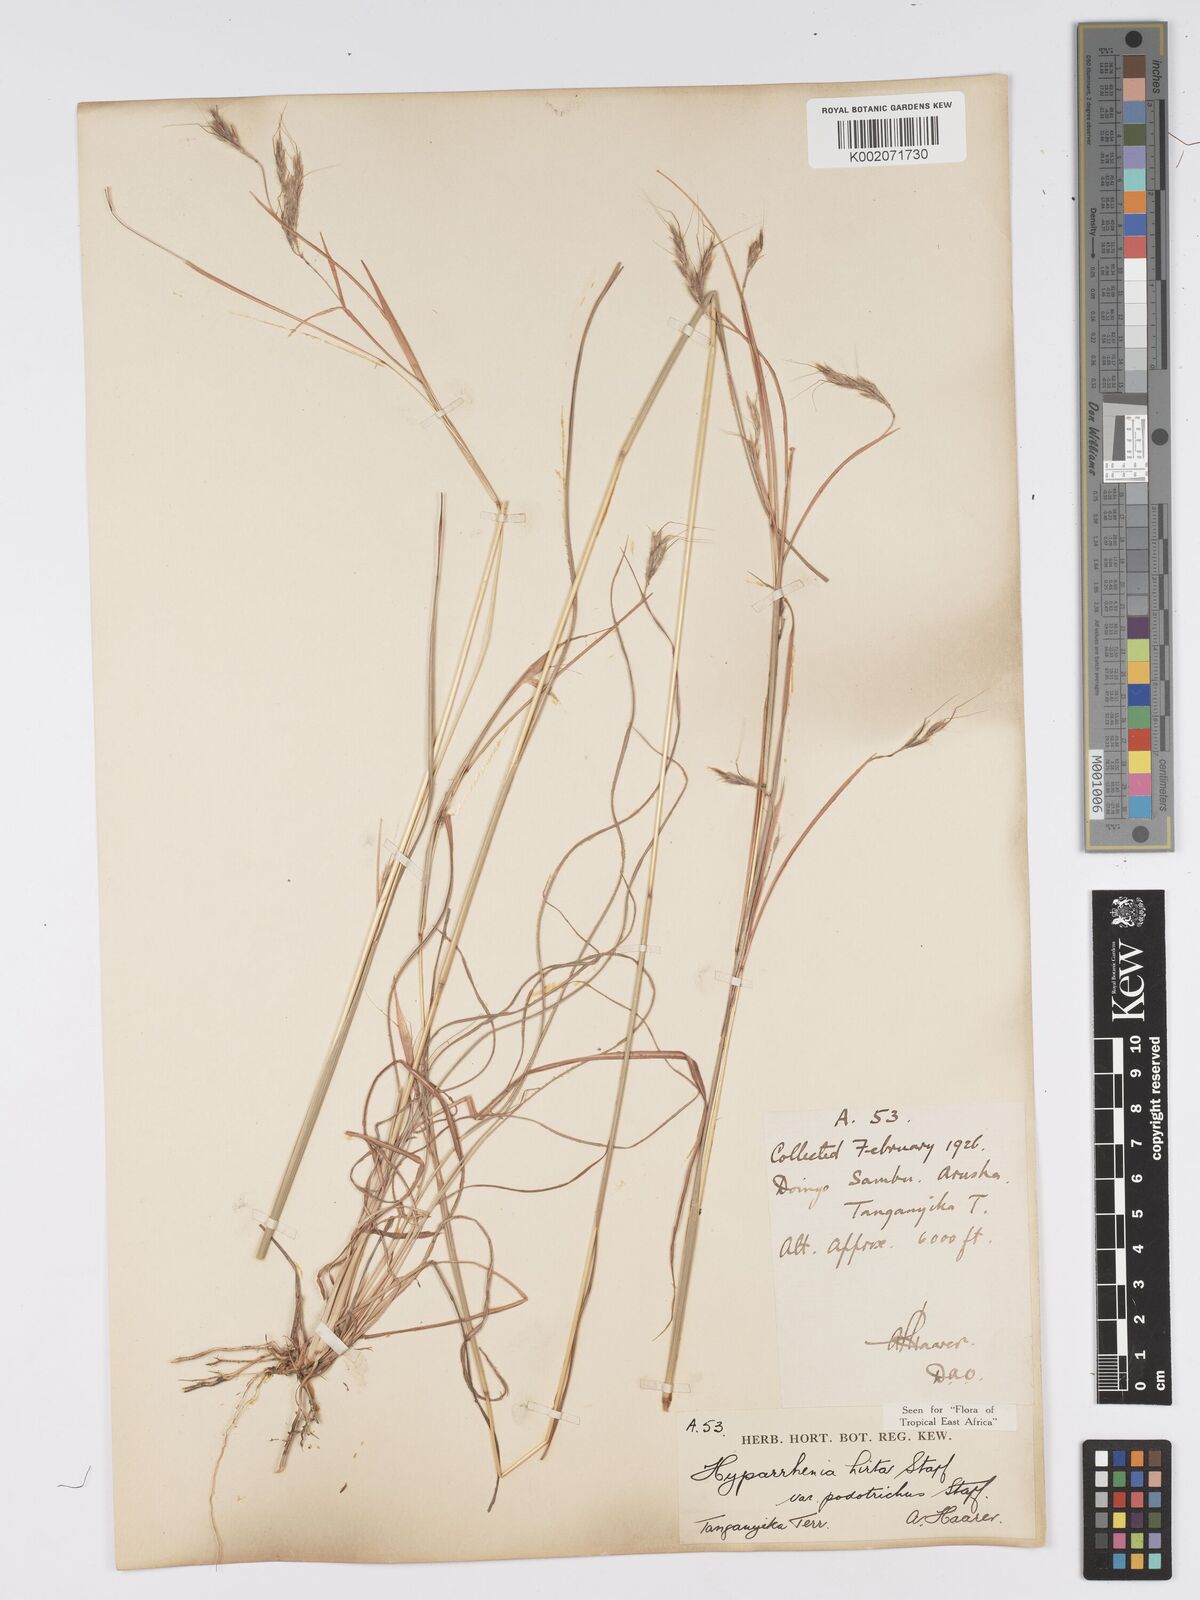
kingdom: Plantae
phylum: Tracheophyta
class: Liliopsida
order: Poales
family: Poaceae
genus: Hyparrhenia
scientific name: Hyparrhenia hirta
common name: Thatching grass
